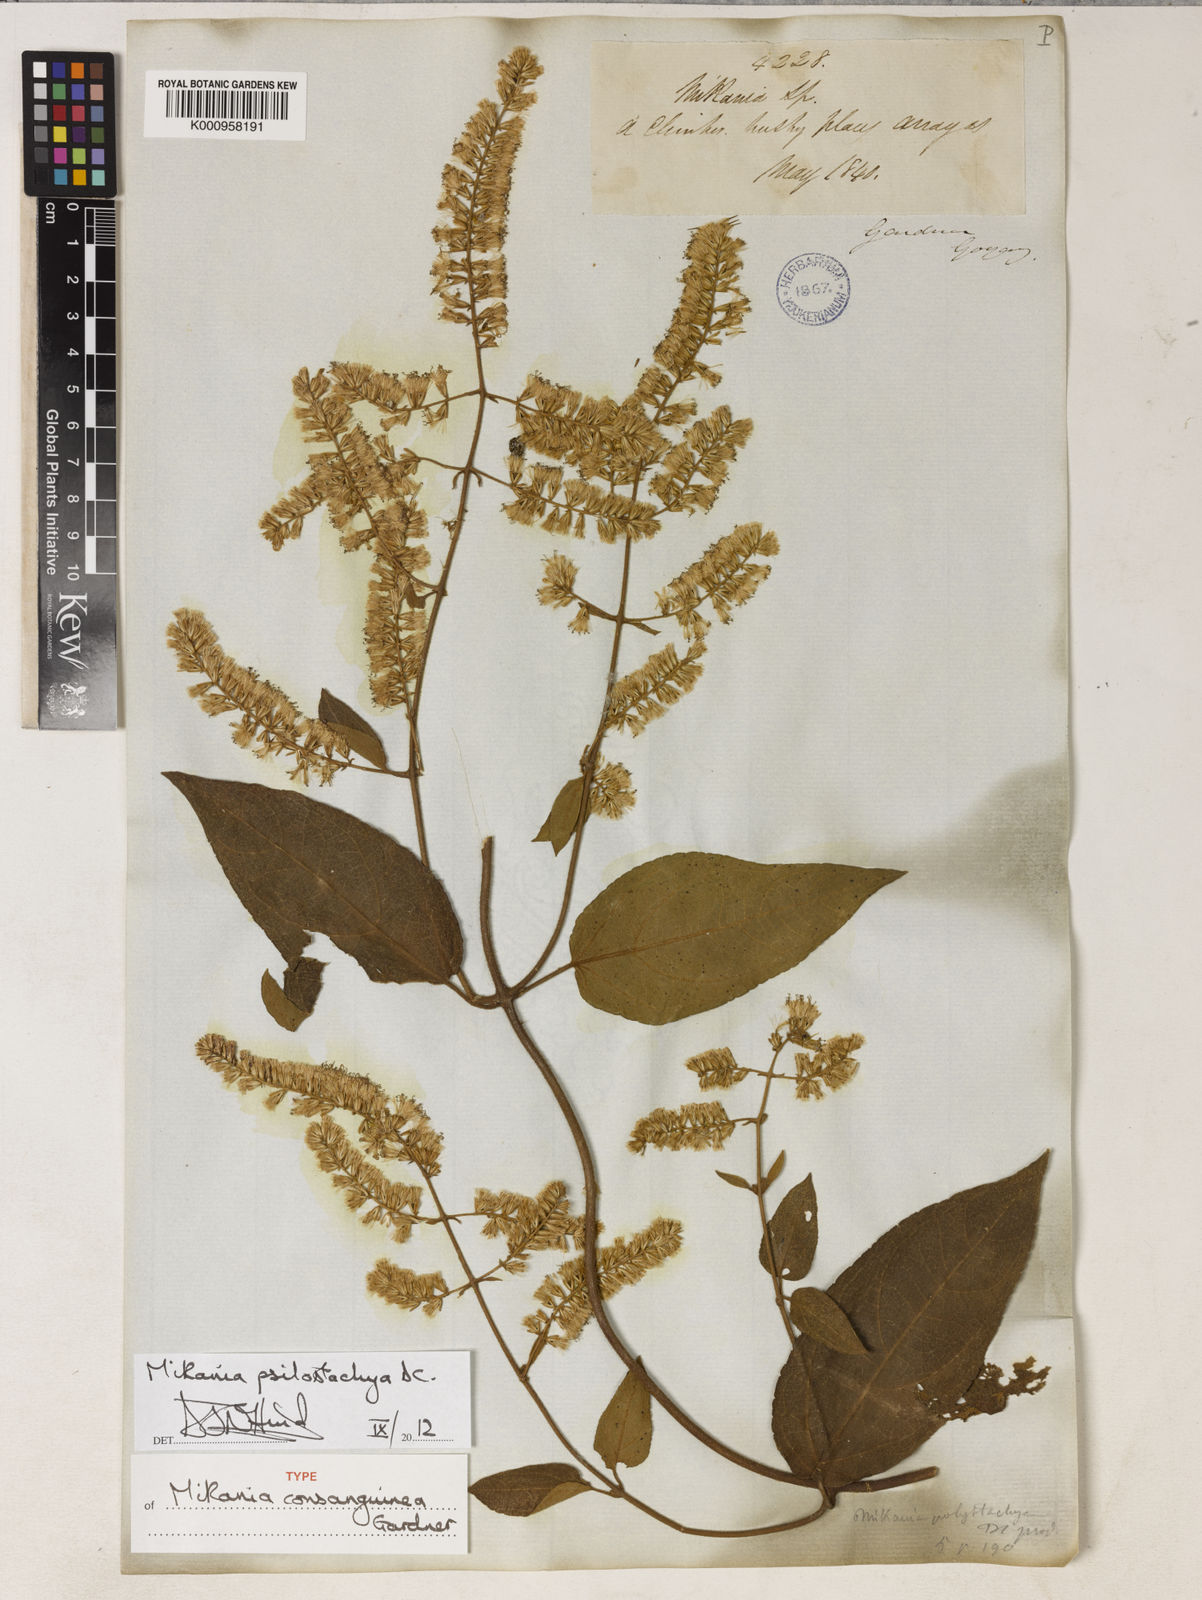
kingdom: Plantae
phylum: Tracheophyta
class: Magnoliopsida
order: Asterales
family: Asteraceae
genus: Mikania
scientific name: Mikania psilostachya
